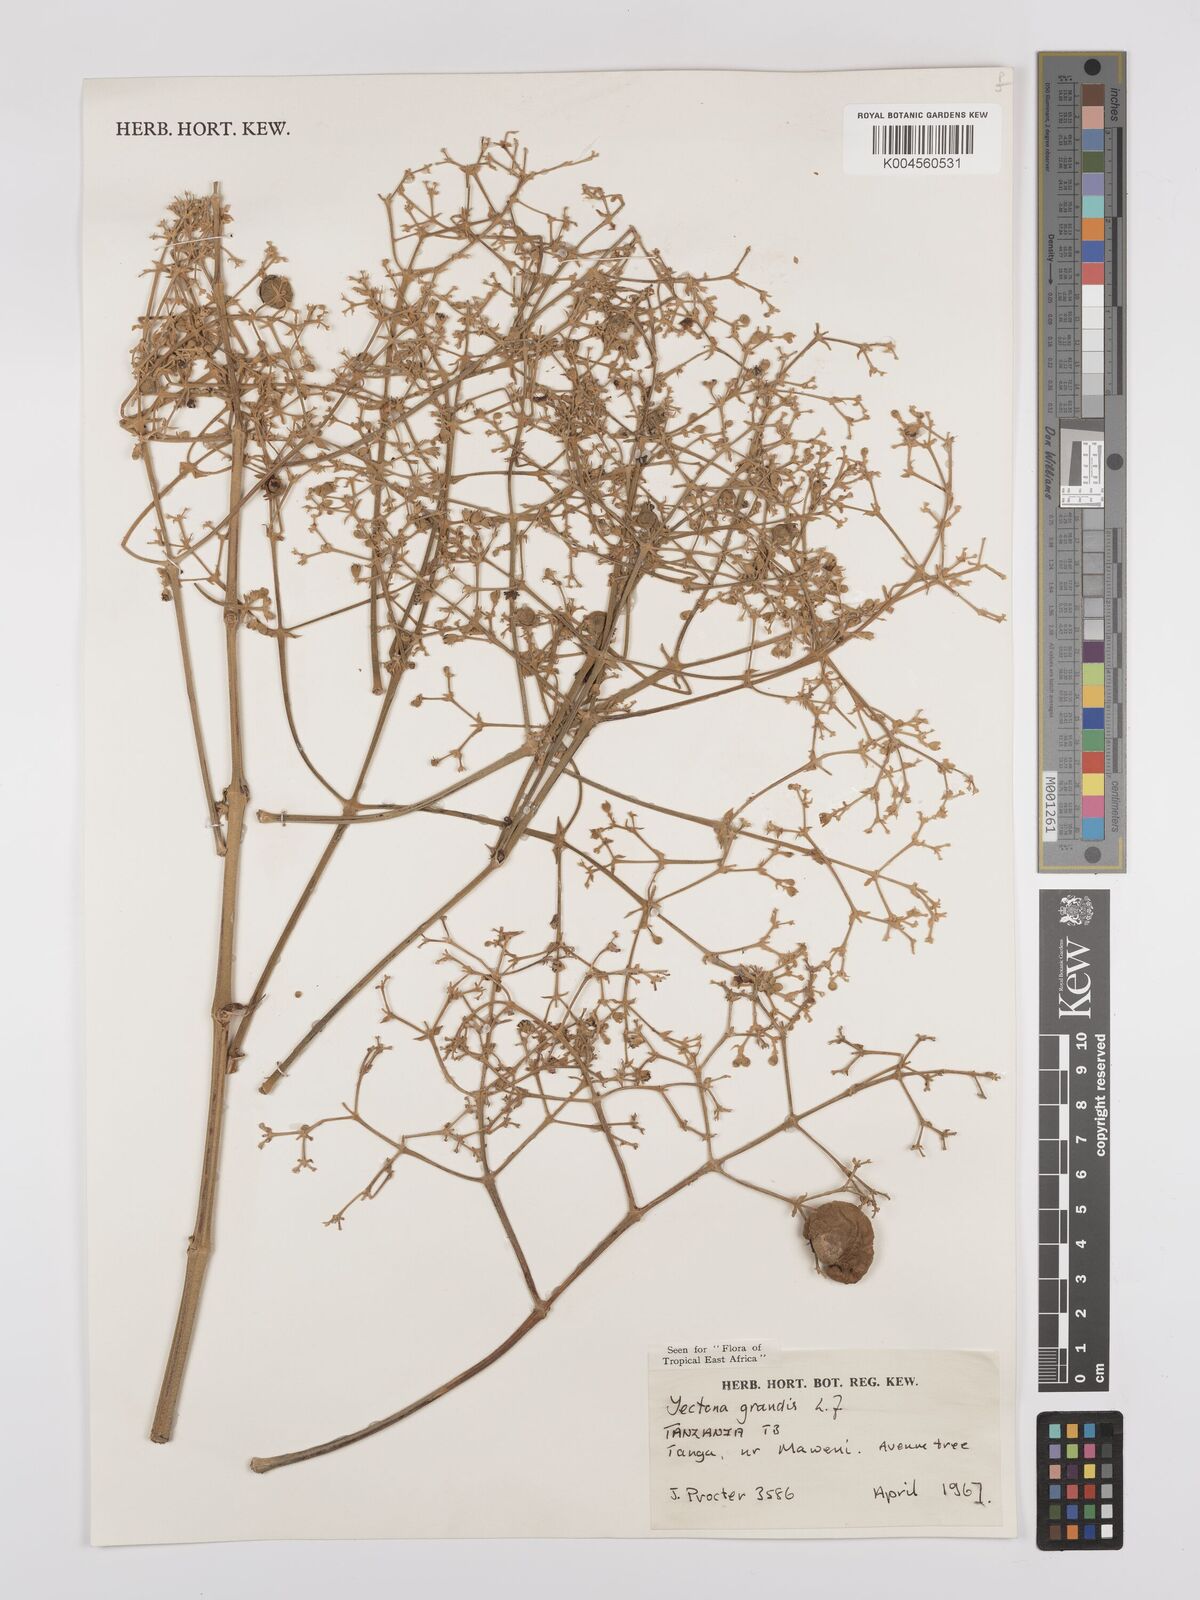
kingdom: Plantae
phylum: Tracheophyta
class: Magnoliopsida
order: Lamiales
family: Lamiaceae
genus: Tectona
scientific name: Tectona grandis
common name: Teak
